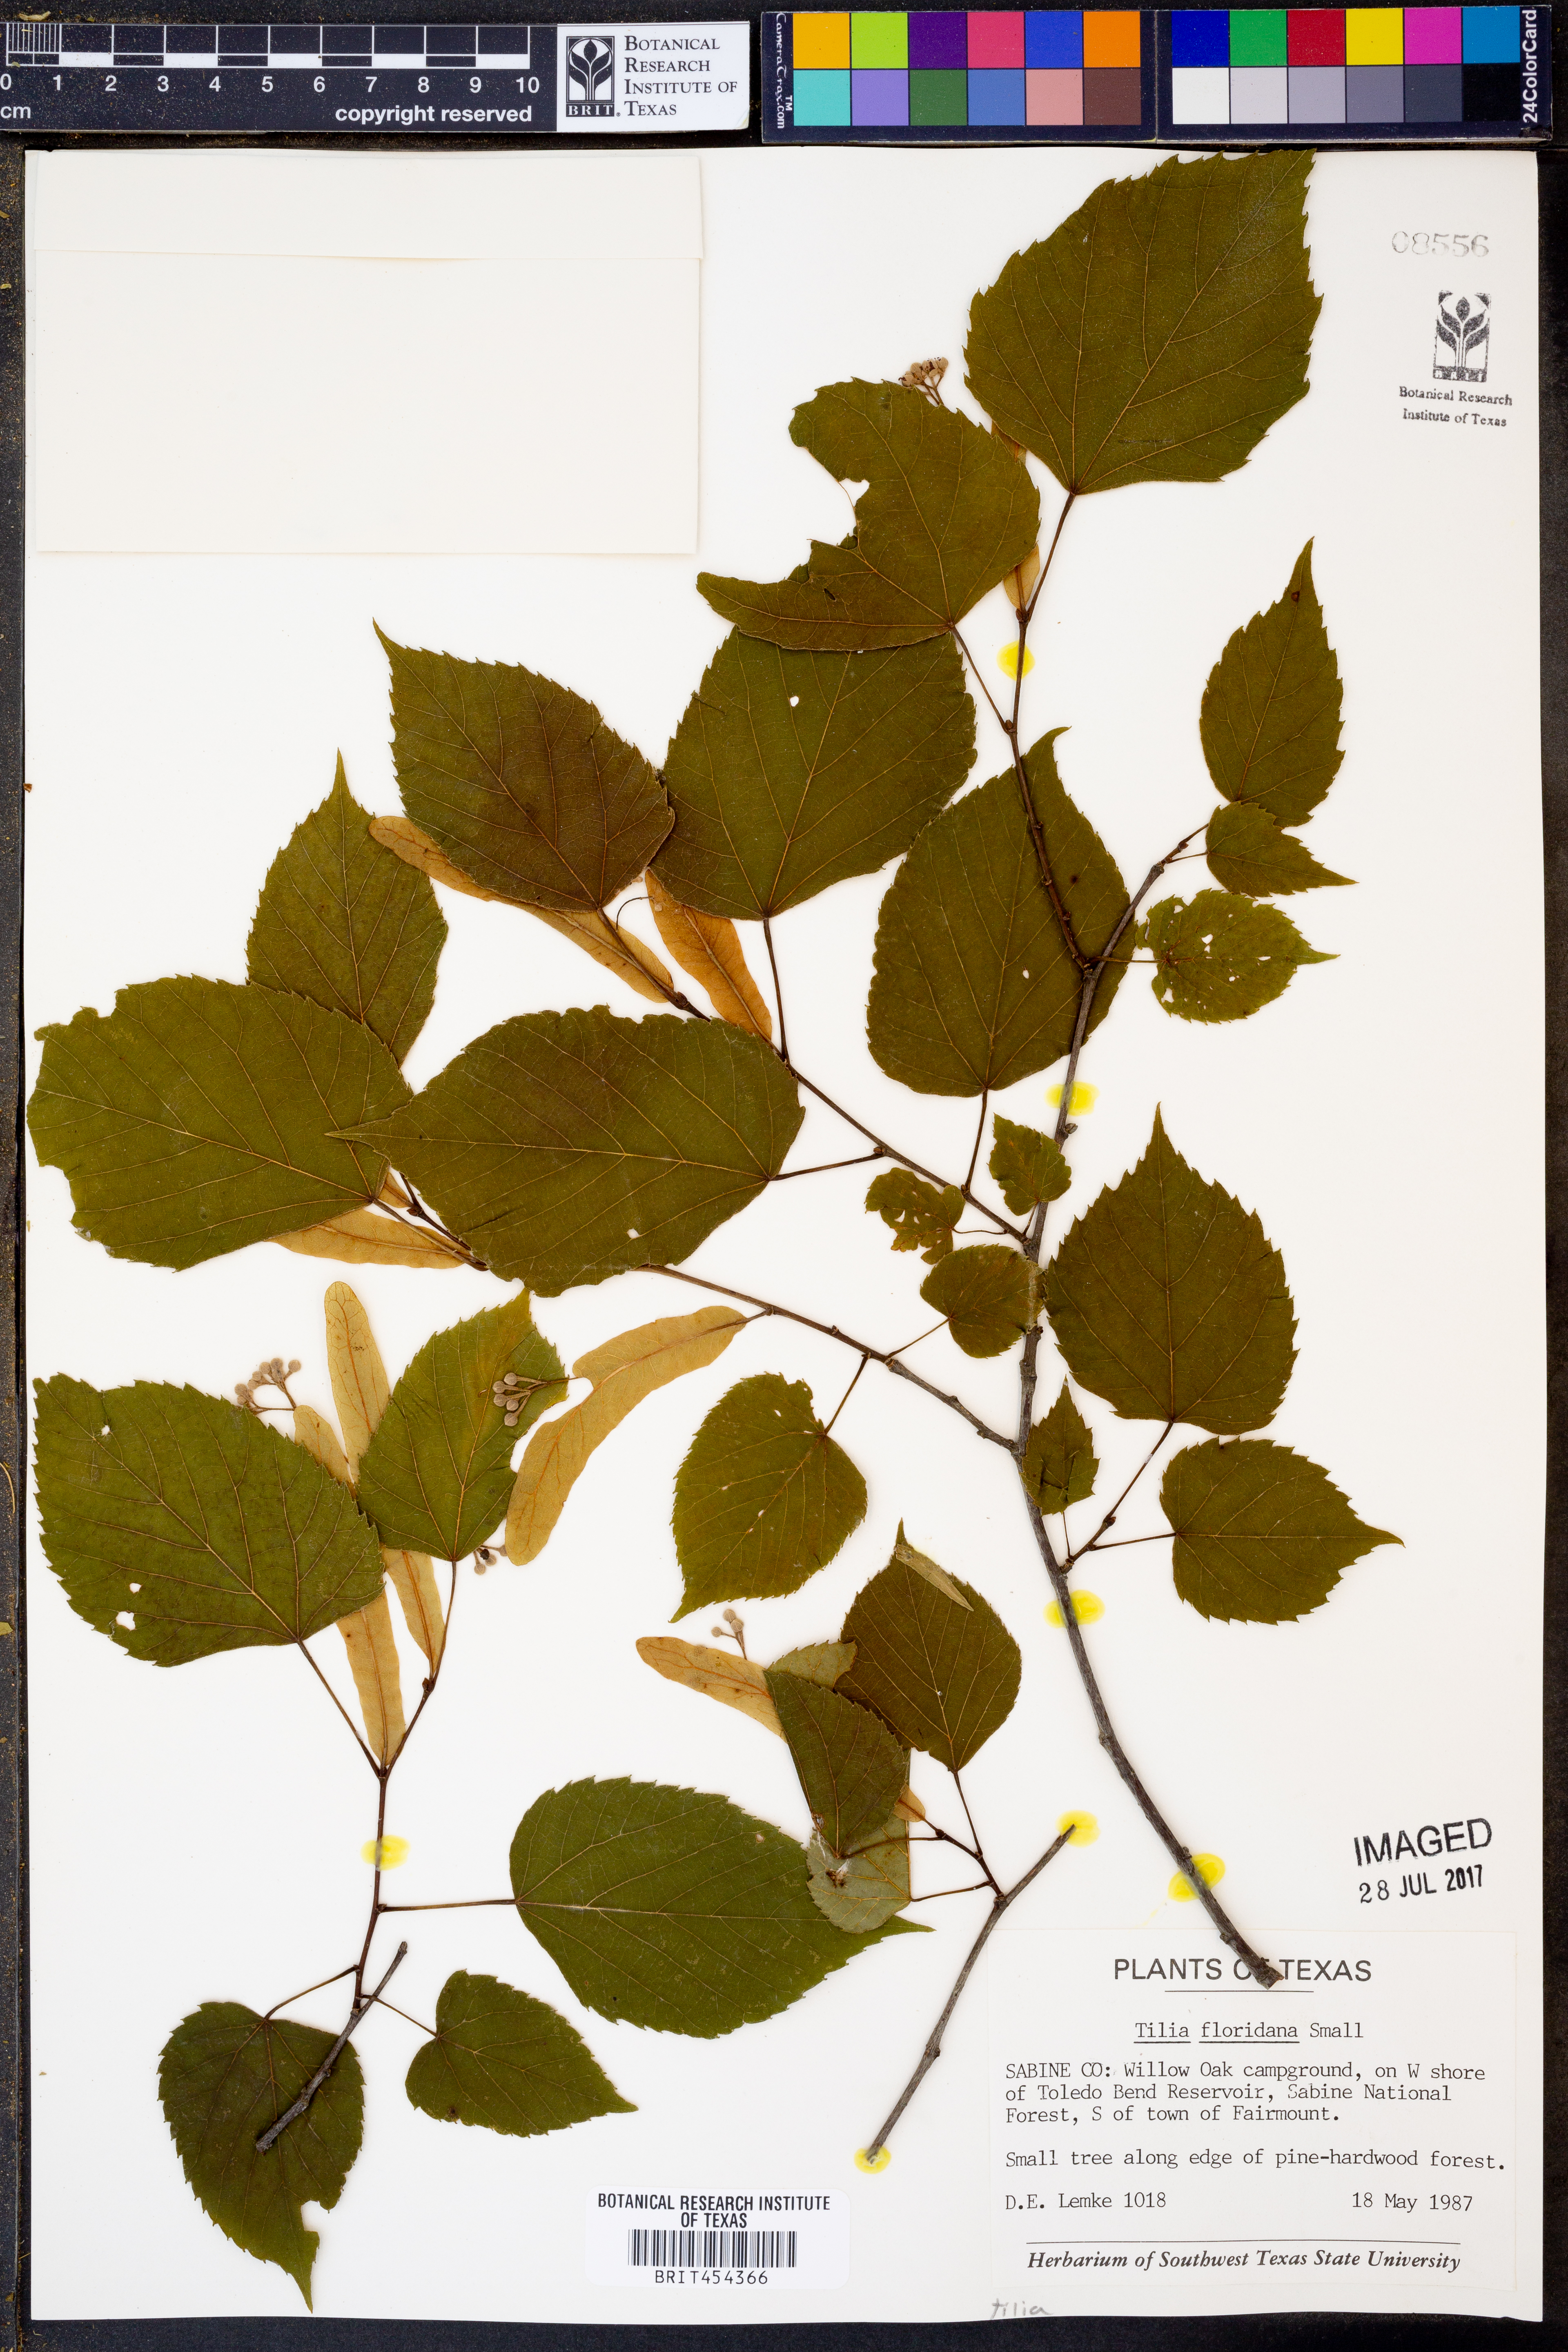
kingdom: Plantae
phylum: Tracheophyta
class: Magnoliopsida
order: Malvales
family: Malvaceae
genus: Tilia
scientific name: Tilia americana
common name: Basswood
